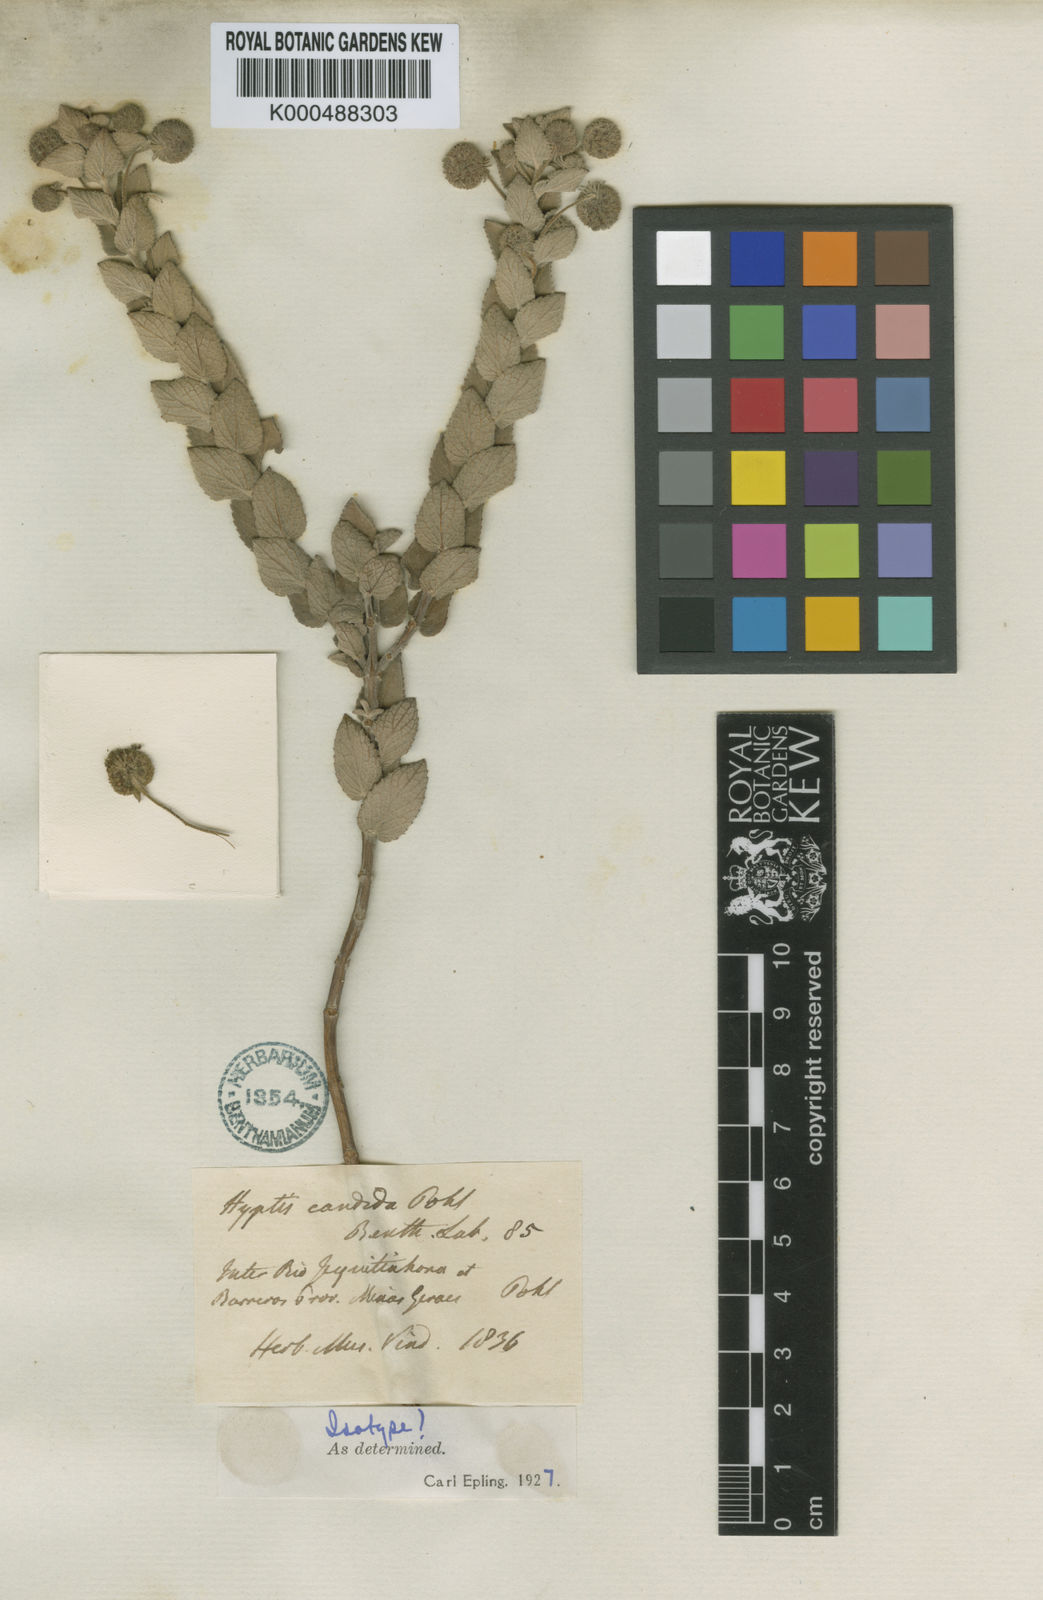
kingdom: Plantae
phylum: Tracheophyta
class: Magnoliopsida
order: Lamiales
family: Lamiaceae
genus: Cyanocephalus
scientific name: Cyanocephalus lippioides
